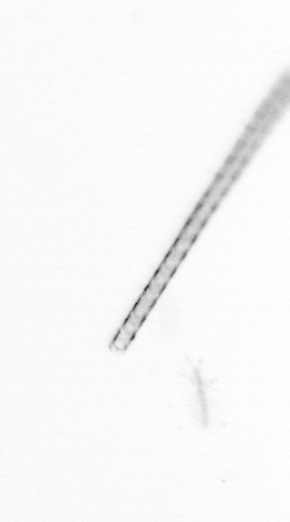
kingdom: Chromista
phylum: Ochrophyta
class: Bacillariophyceae
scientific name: Bacillariophyceae
